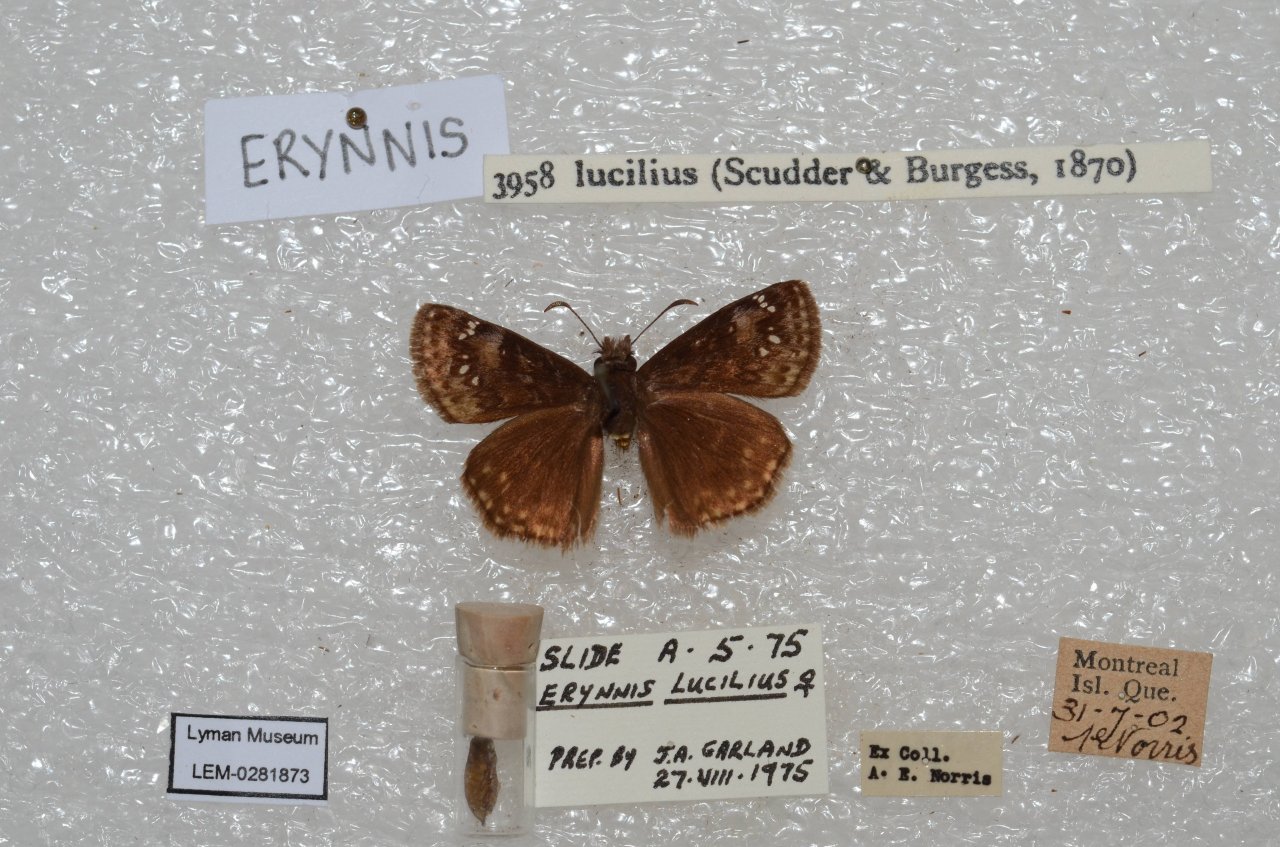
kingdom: Animalia
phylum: Arthropoda
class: Insecta
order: Lepidoptera
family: Hesperiidae
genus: Gesta
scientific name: Gesta
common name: Columbine Duskywing
